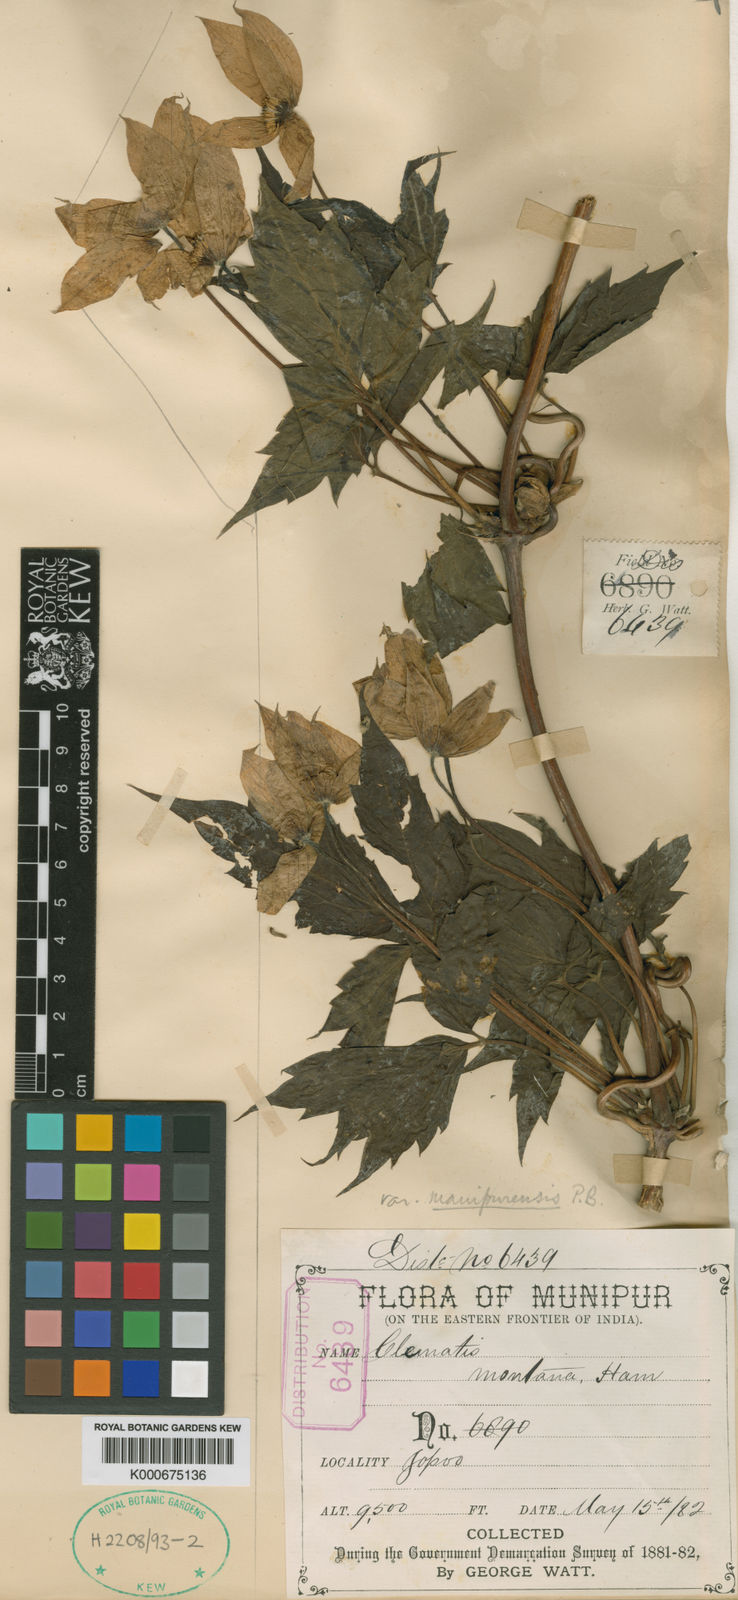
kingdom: Plantae
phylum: Tracheophyta
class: Magnoliopsida
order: Ranunculales
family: Ranunculaceae
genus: Clematis
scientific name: Clematis montana
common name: Himalayan clematis
